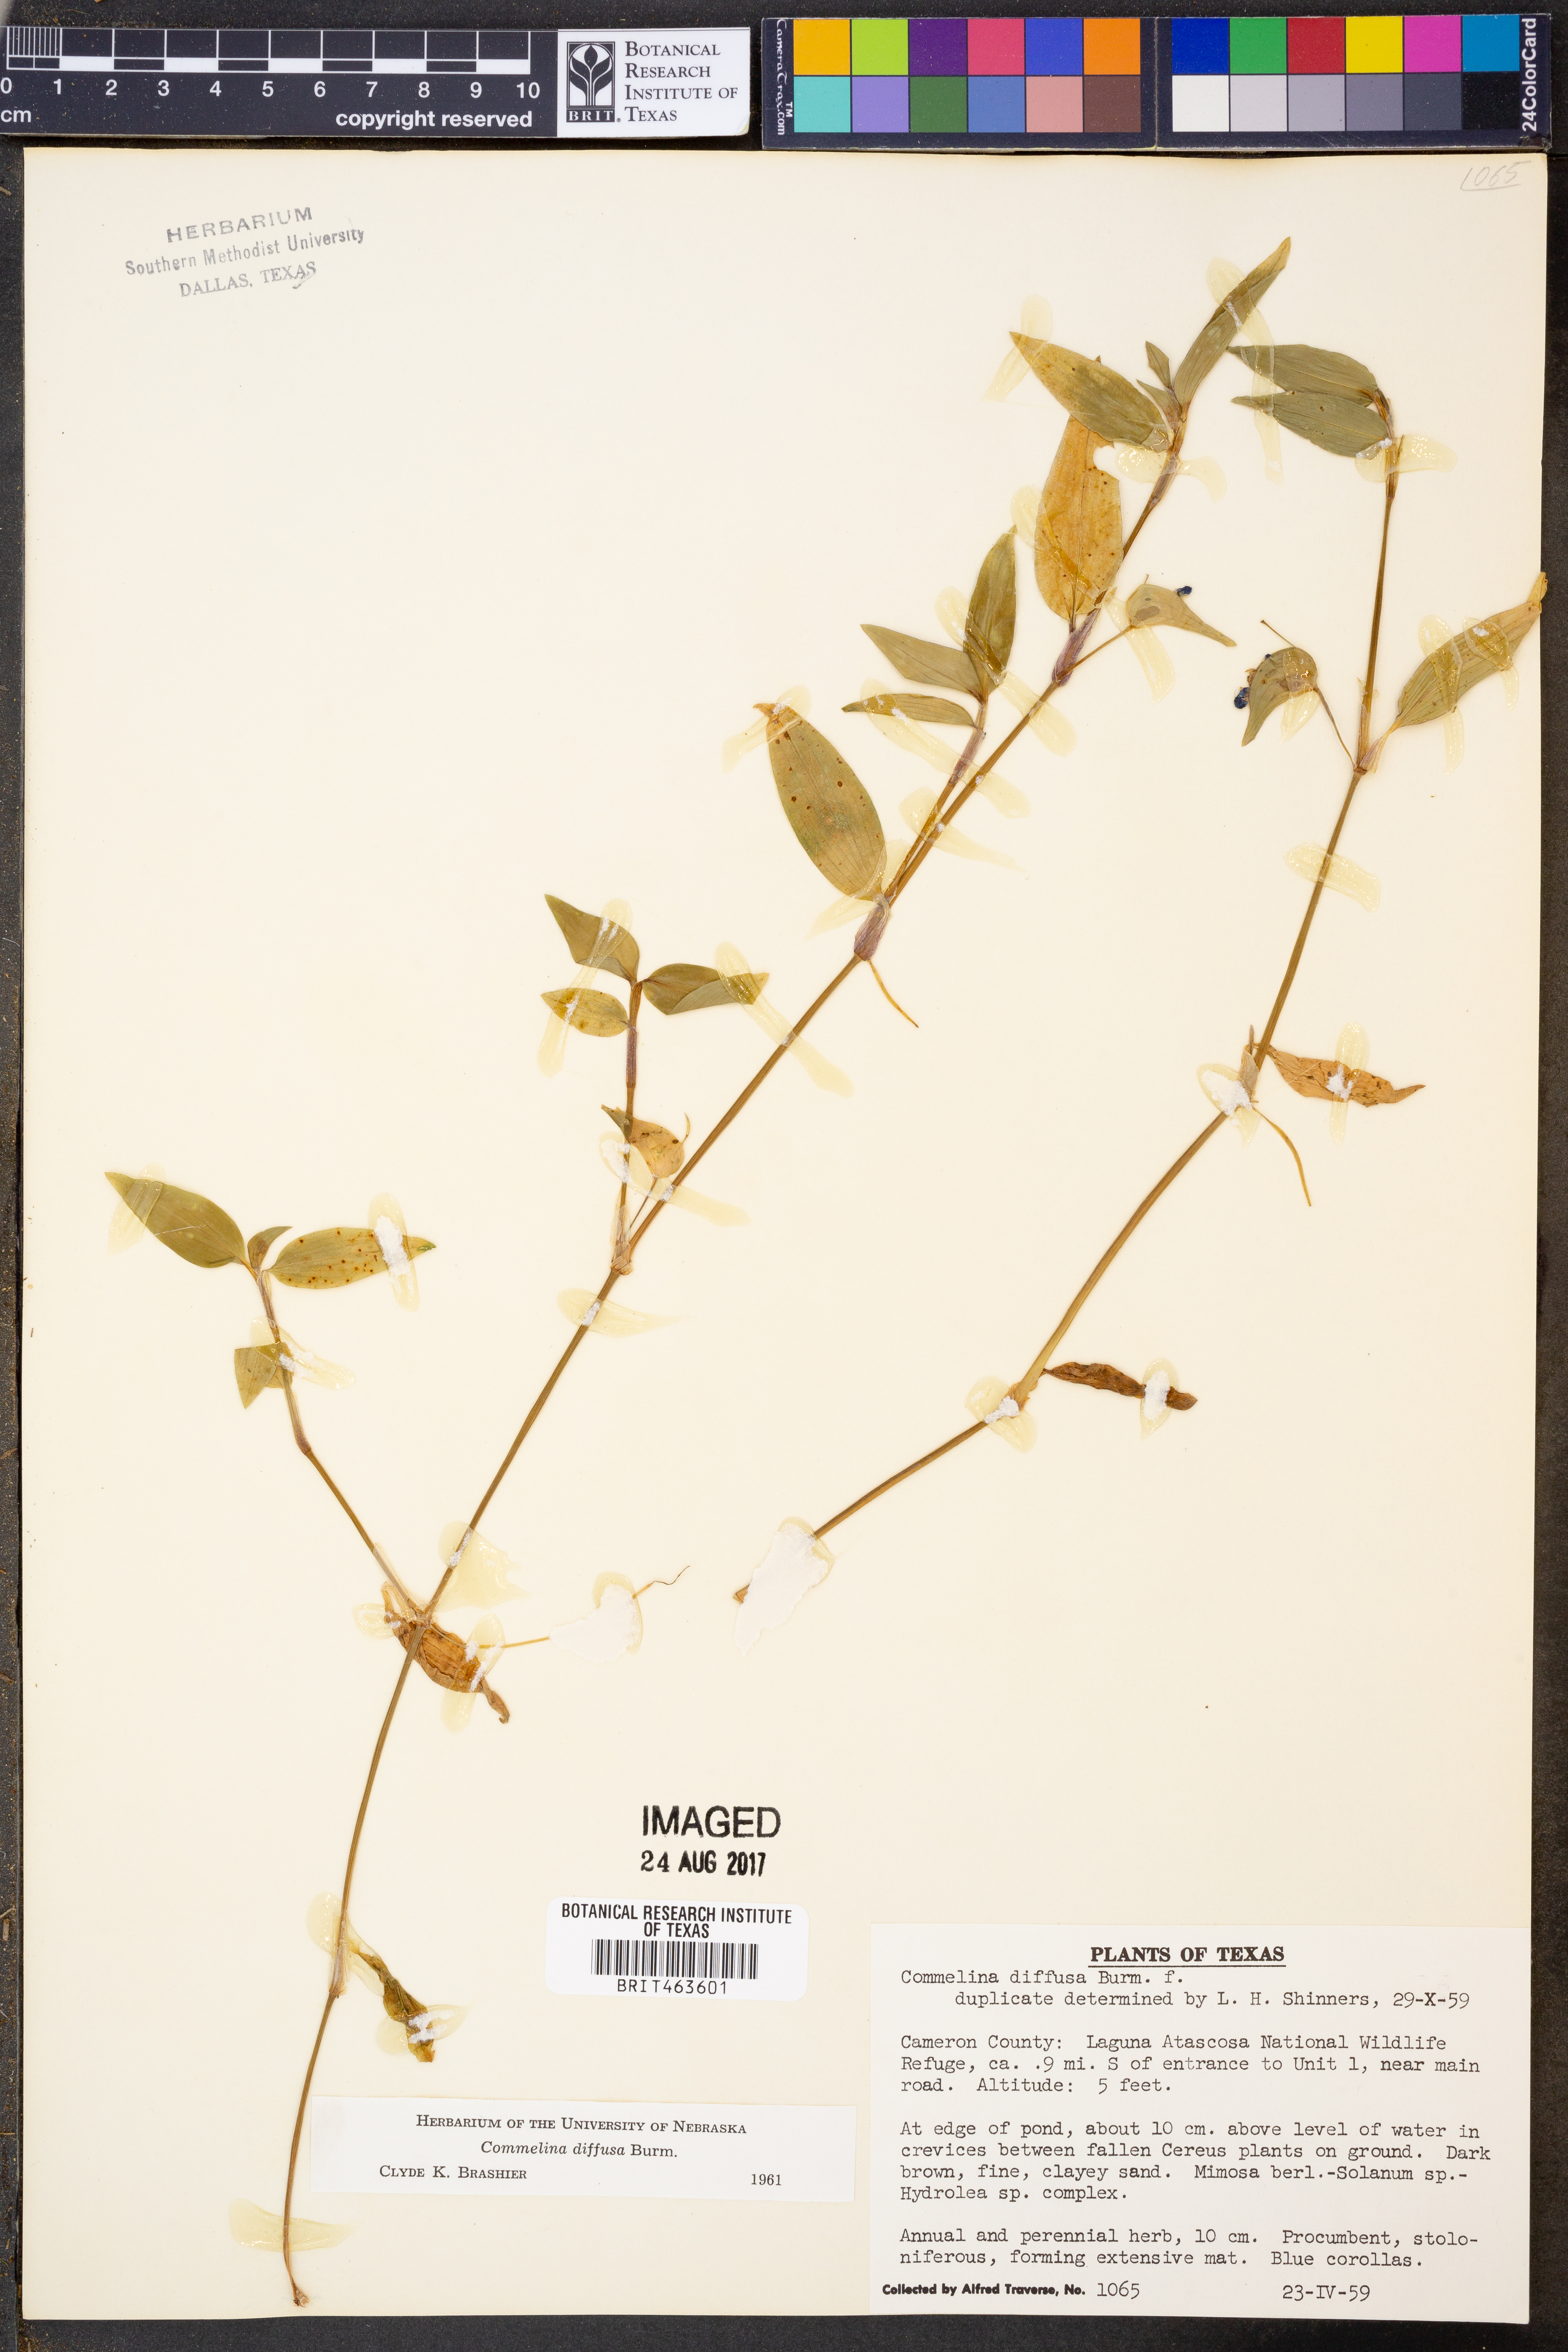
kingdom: Plantae
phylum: Tracheophyta
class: Liliopsida
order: Commelinales
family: Commelinaceae
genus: Commelina
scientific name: Commelina diffusa
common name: Climbing dayflower
